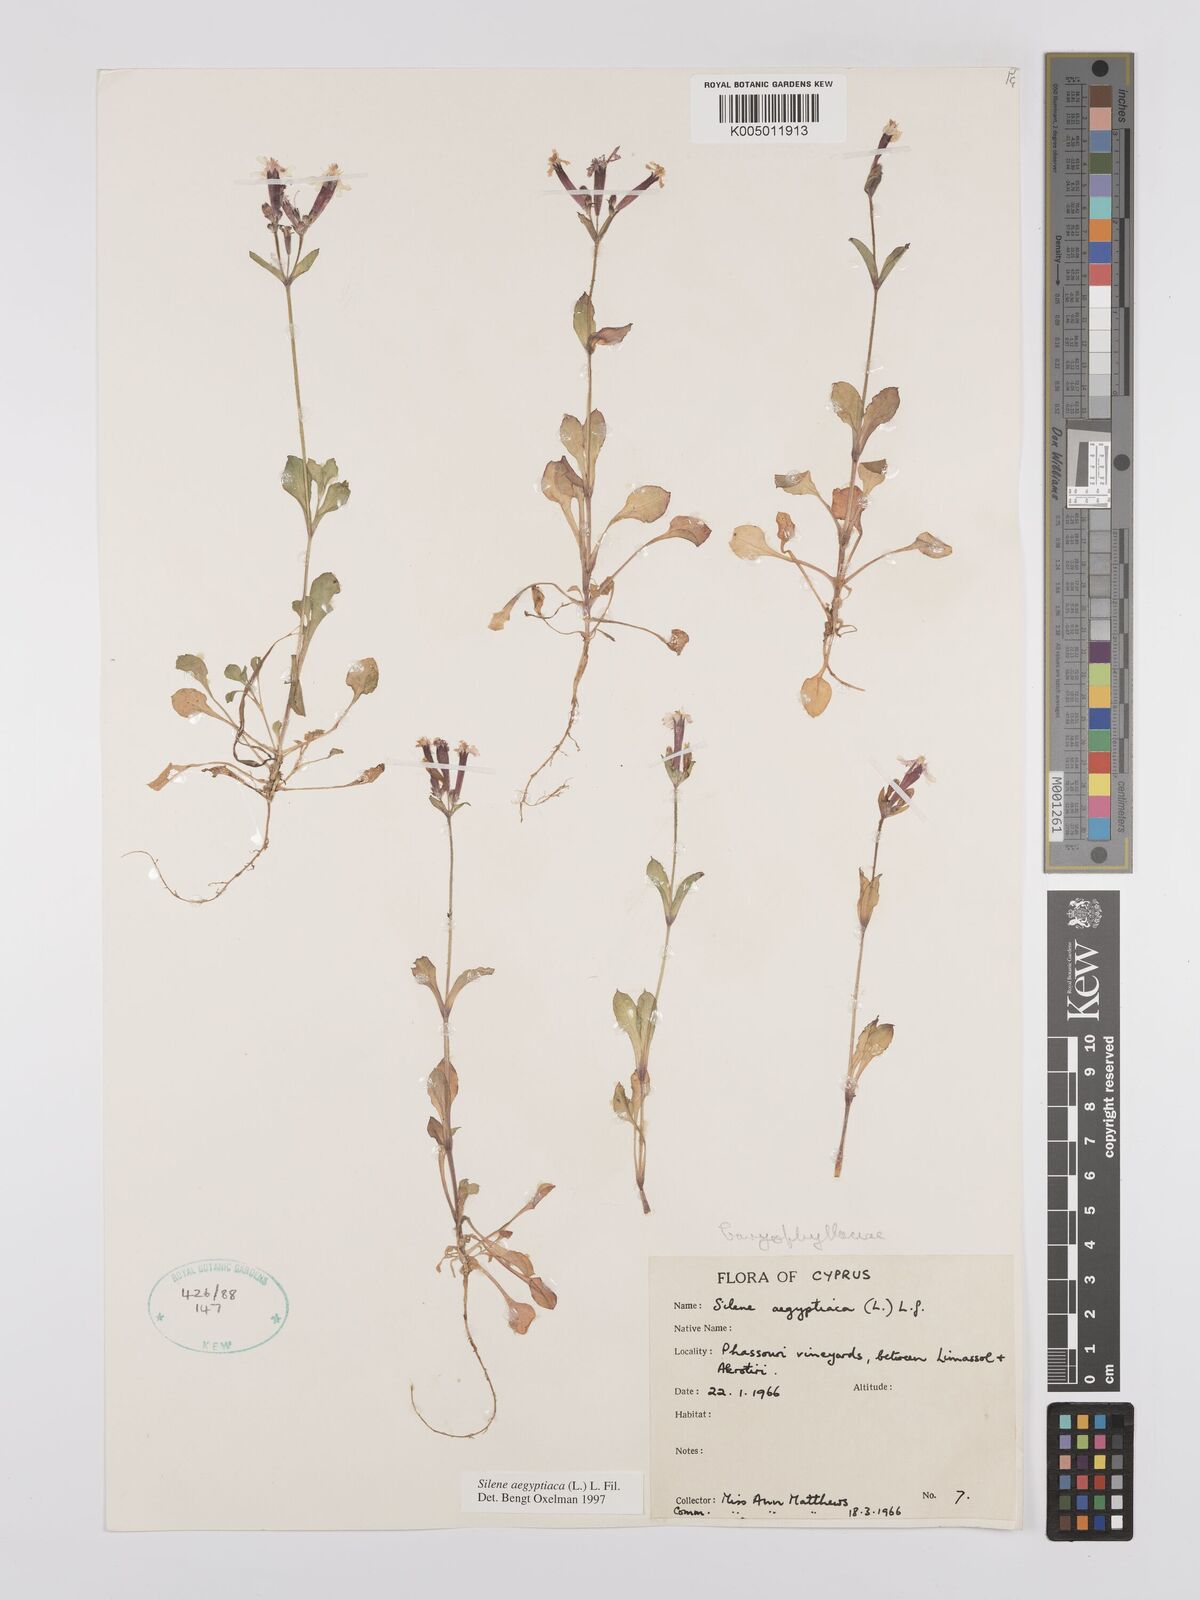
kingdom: Plantae
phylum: Tracheophyta
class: Magnoliopsida
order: Caryophyllales
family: Caryophyllaceae
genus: Silene
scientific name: Silene aegyptiaca
